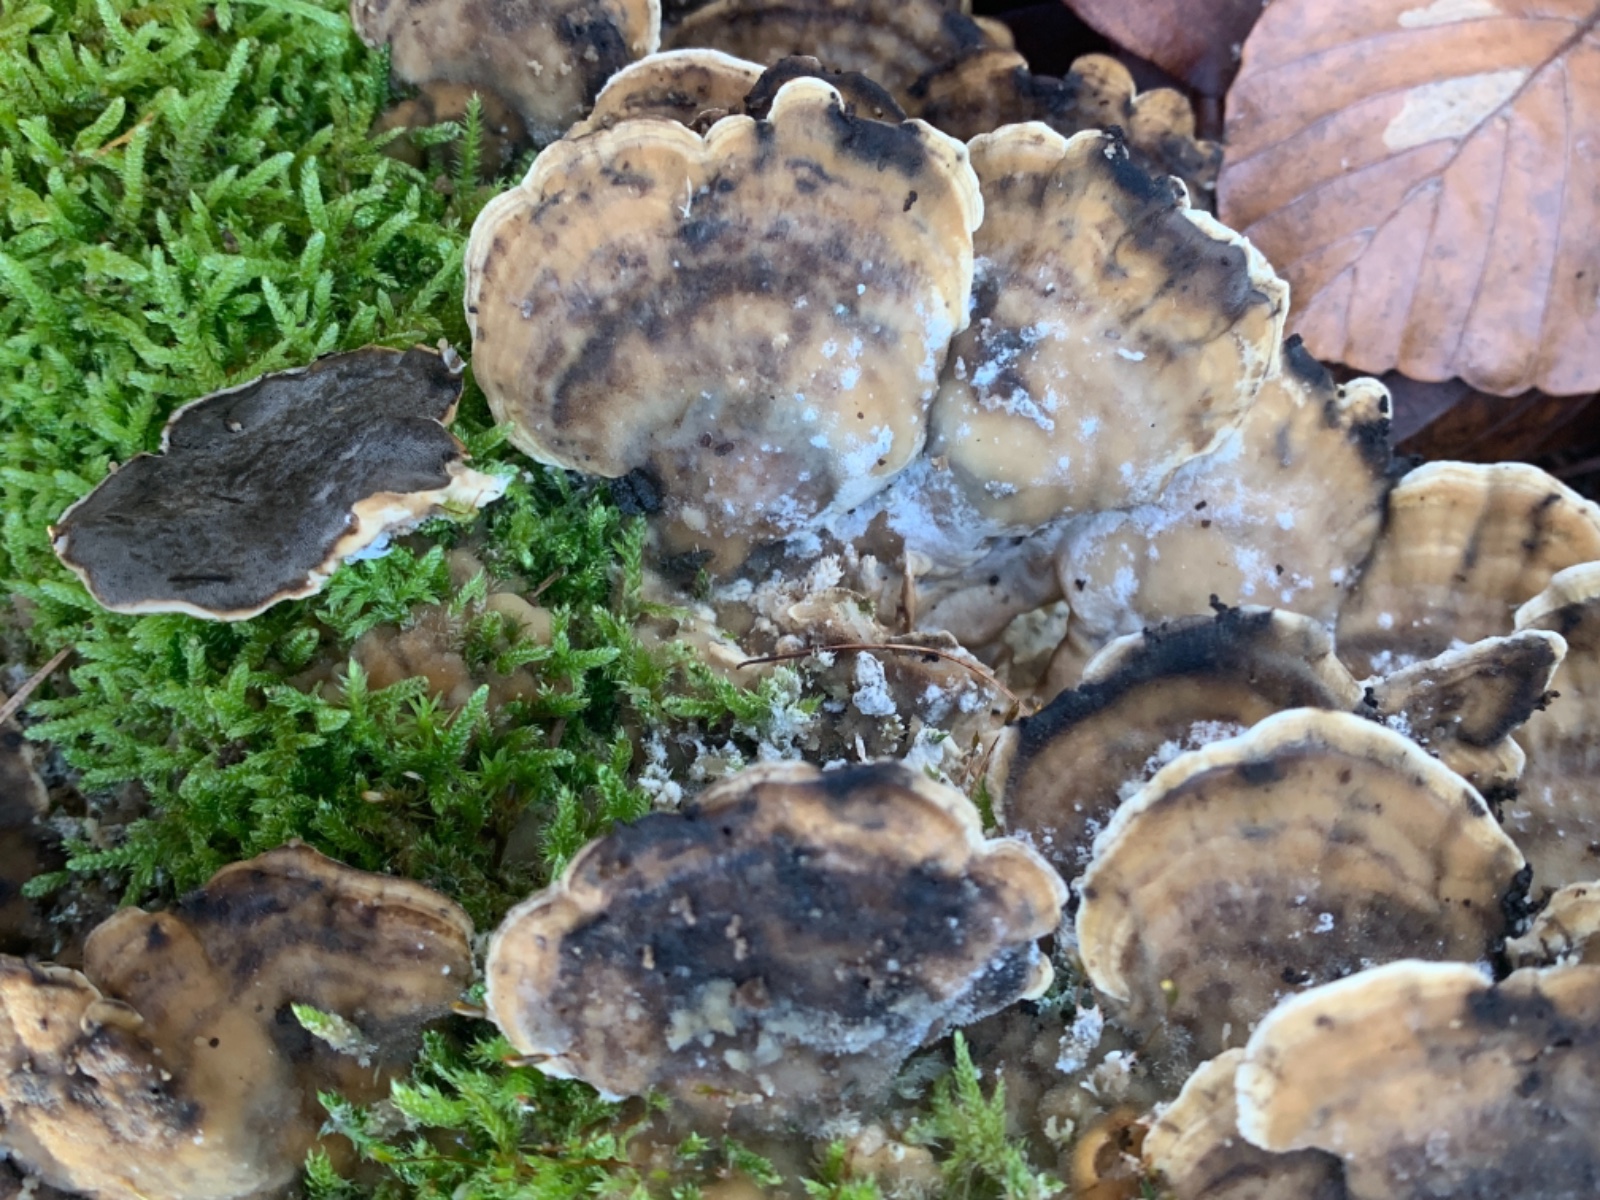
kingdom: Fungi
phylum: Basidiomycota
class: Agaricomycetes
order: Polyporales
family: Phanerochaetaceae
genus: Bjerkandera
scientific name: Bjerkandera adusta
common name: sveden sodporesvamp
